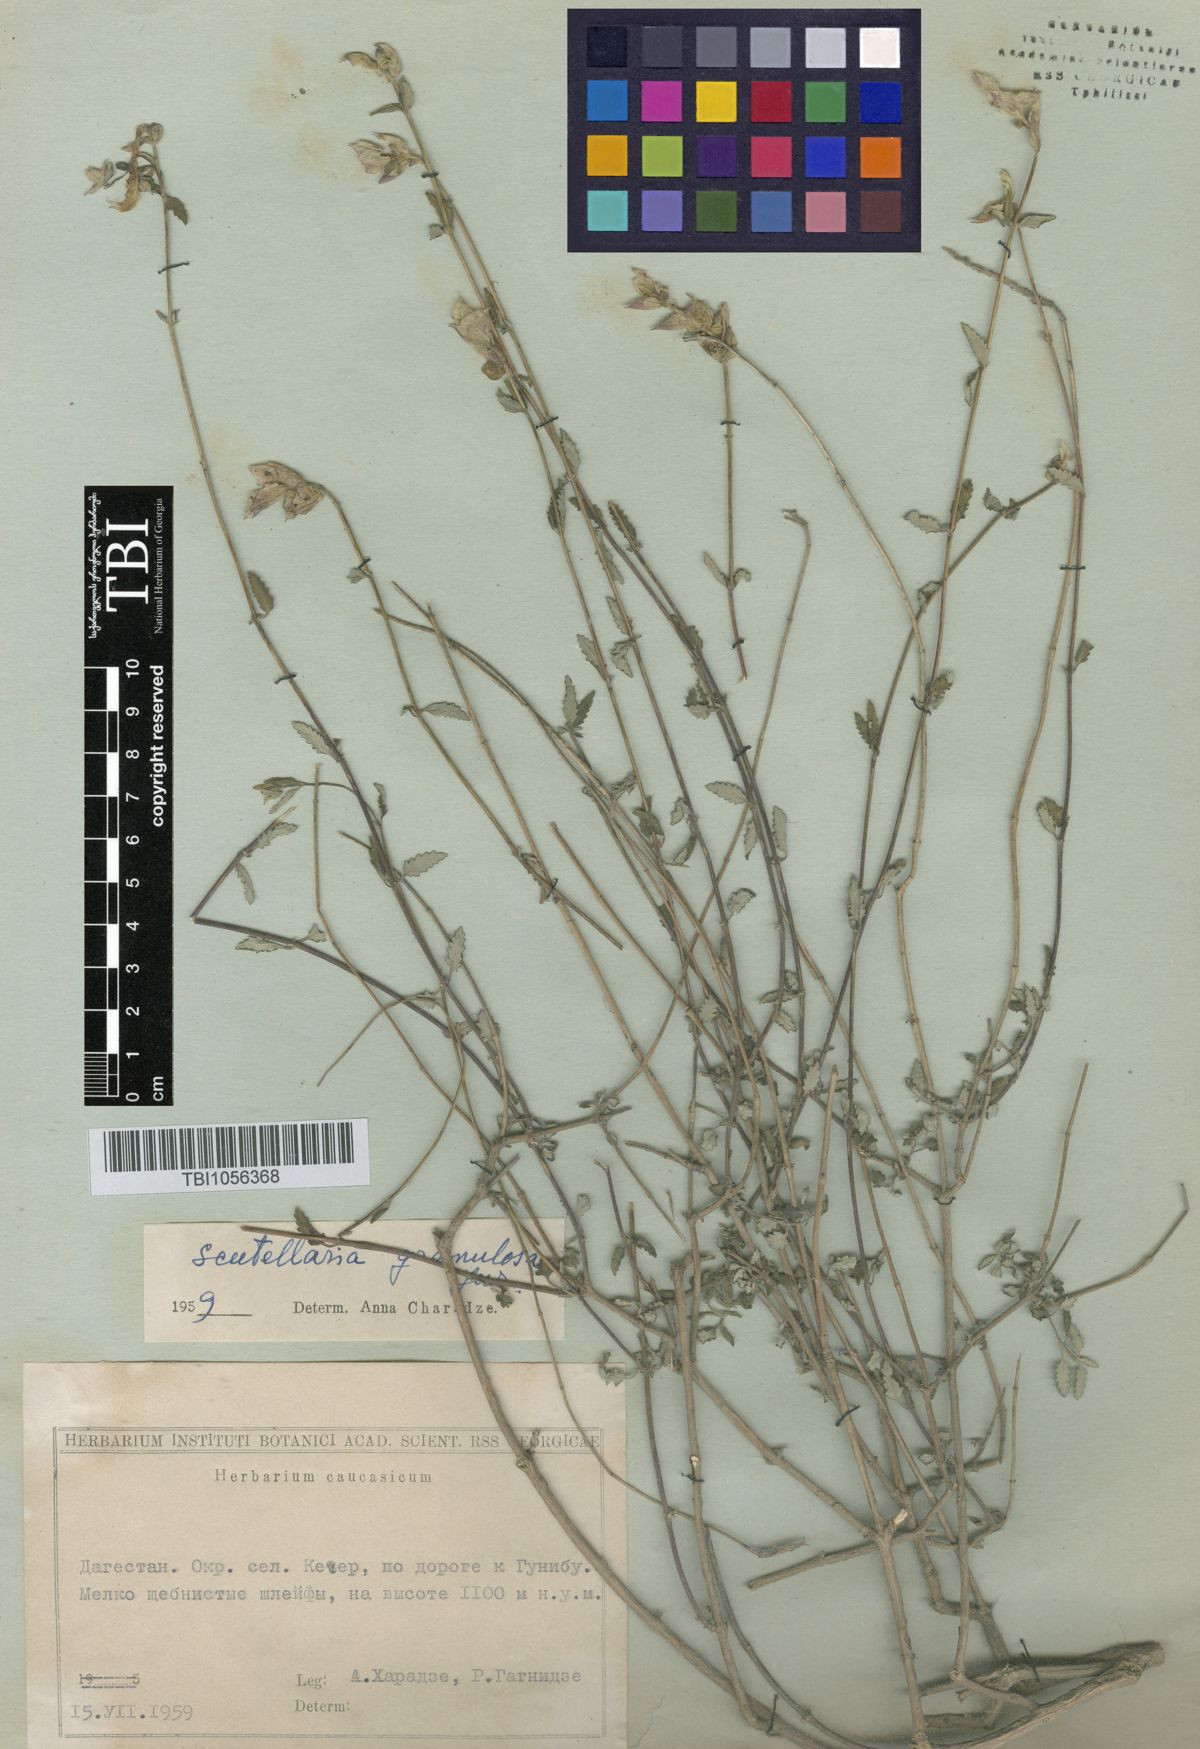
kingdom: Plantae
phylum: Tracheophyta
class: Magnoliopsida
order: Lamiales
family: Lamiaceae
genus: Scutellaria
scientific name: Scutellaria granulosa
